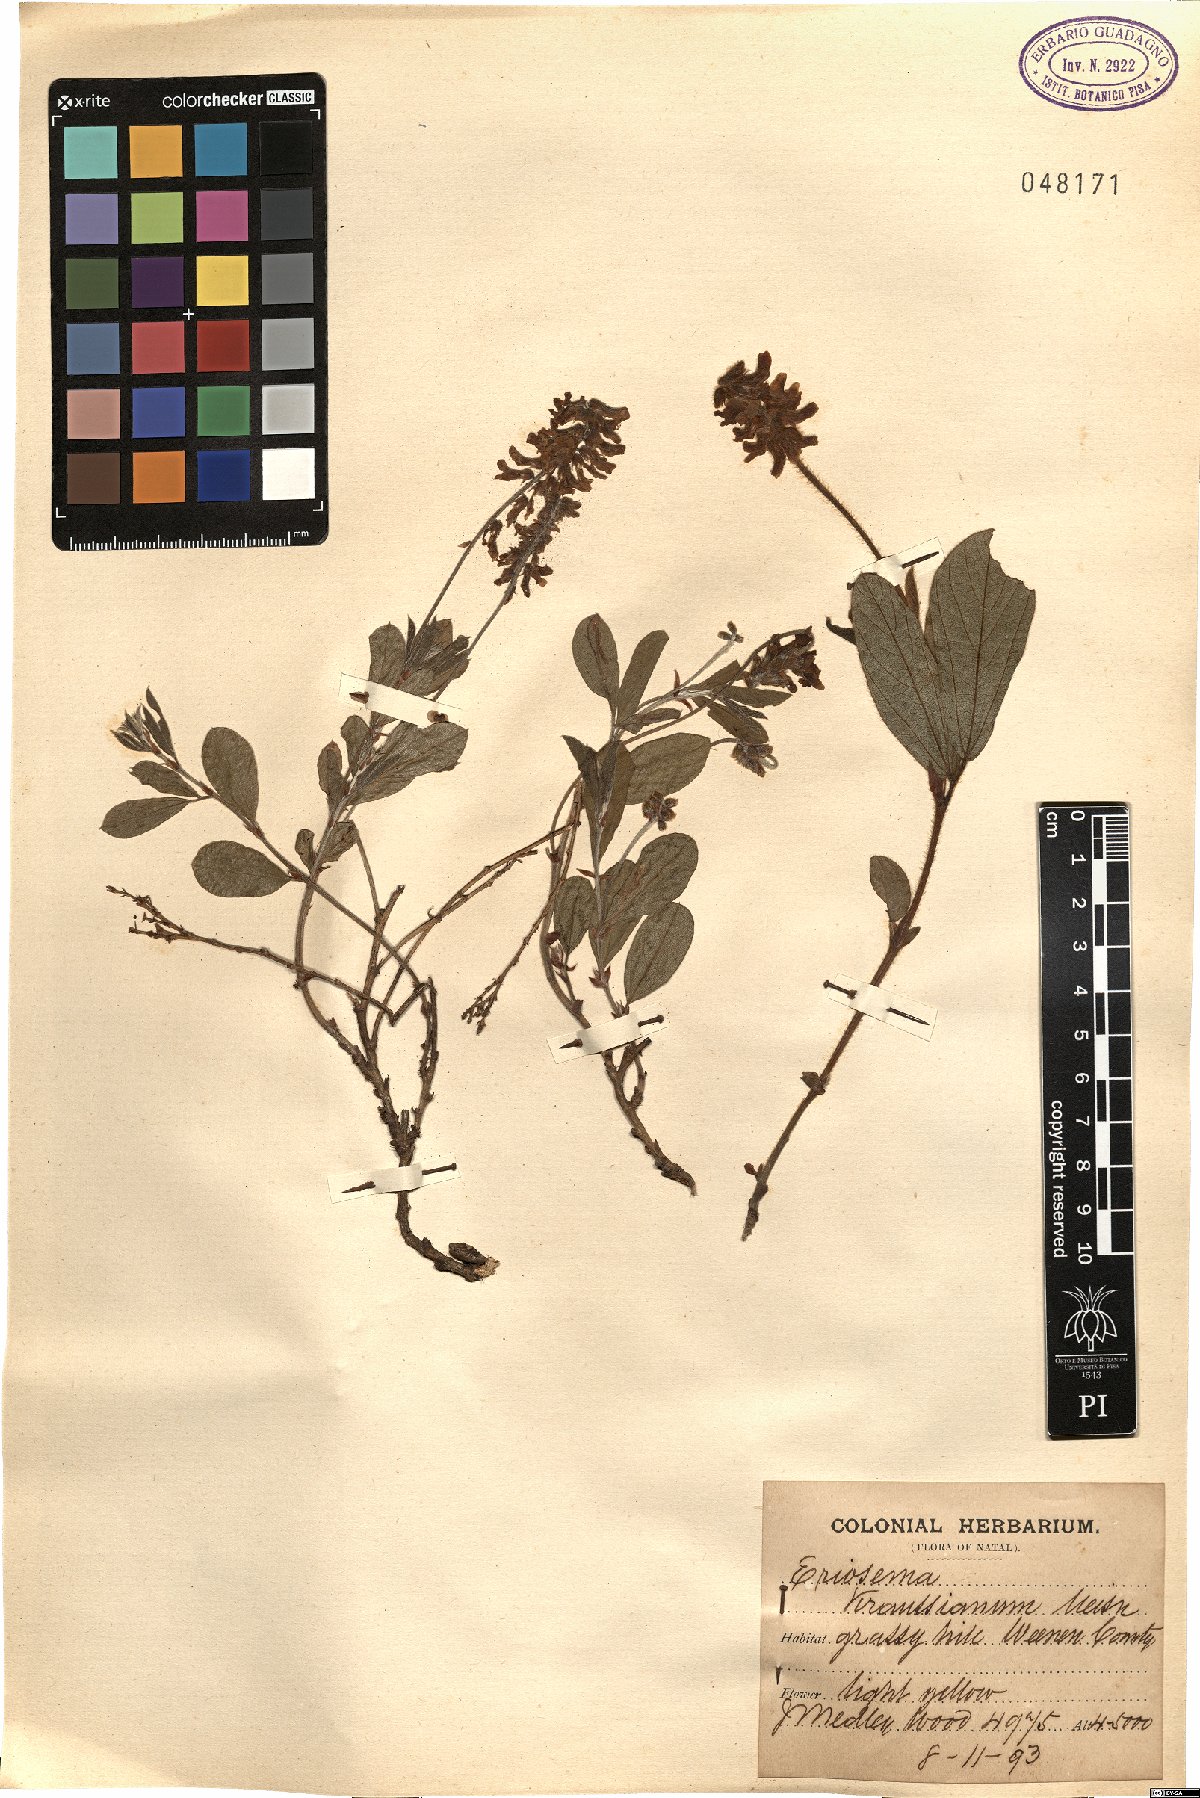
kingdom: Plantae
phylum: Tracheophyta
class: Magnoliopsida
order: Fabales
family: Fabaceae
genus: Eriosema
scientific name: Eriosema kraussianum
